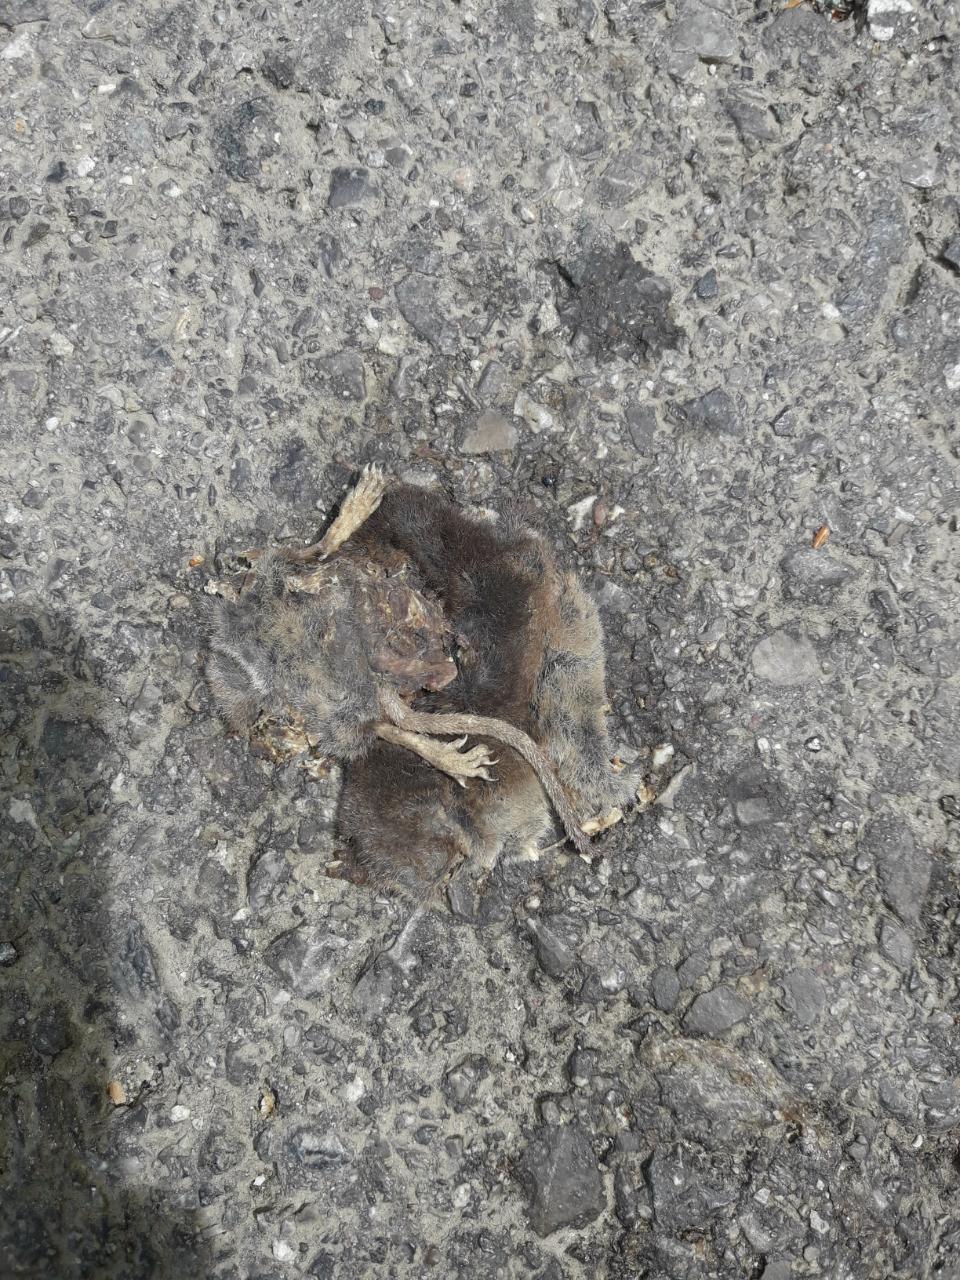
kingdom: Animalia
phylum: Chordata
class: Mammalia
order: Soricomorpha
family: Soricidae
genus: Sorex
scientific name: Sorex araneus
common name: Common shrew
